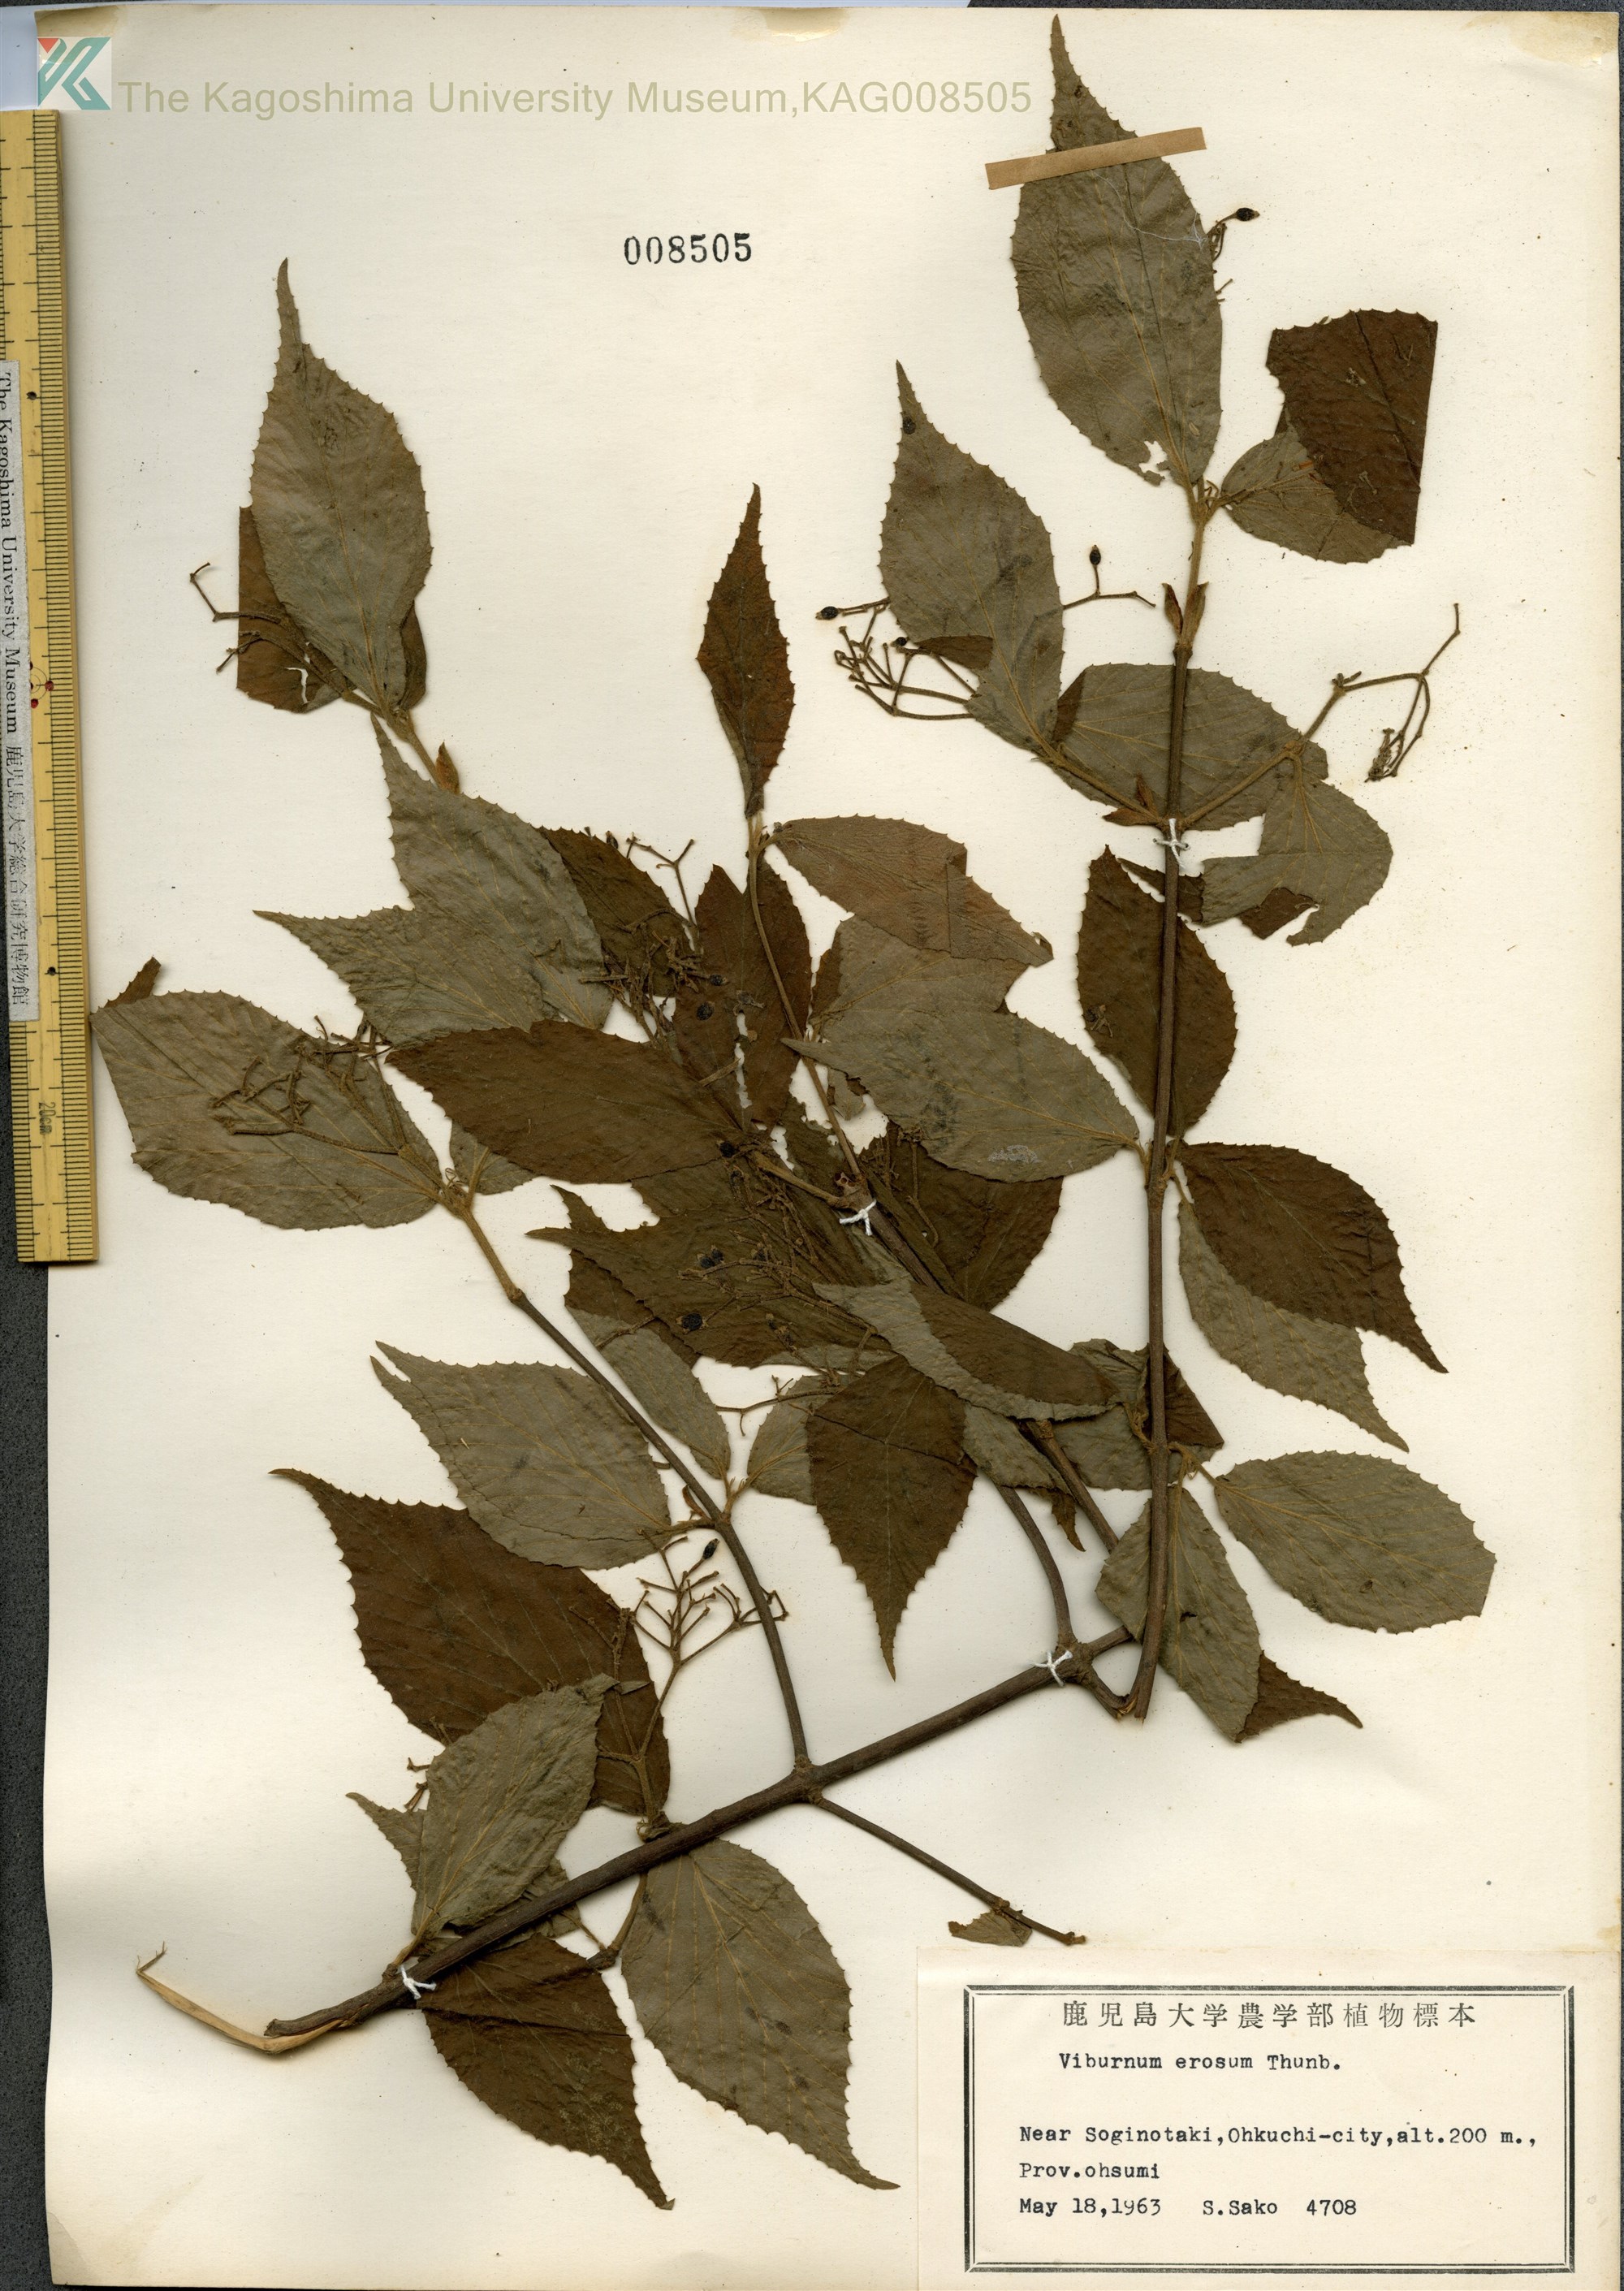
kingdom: Plantae
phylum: Tracheophyta
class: Magnoliopsida
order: Dipsacales
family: Viburnaceae
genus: Viburnum
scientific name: Viburnum erosum
